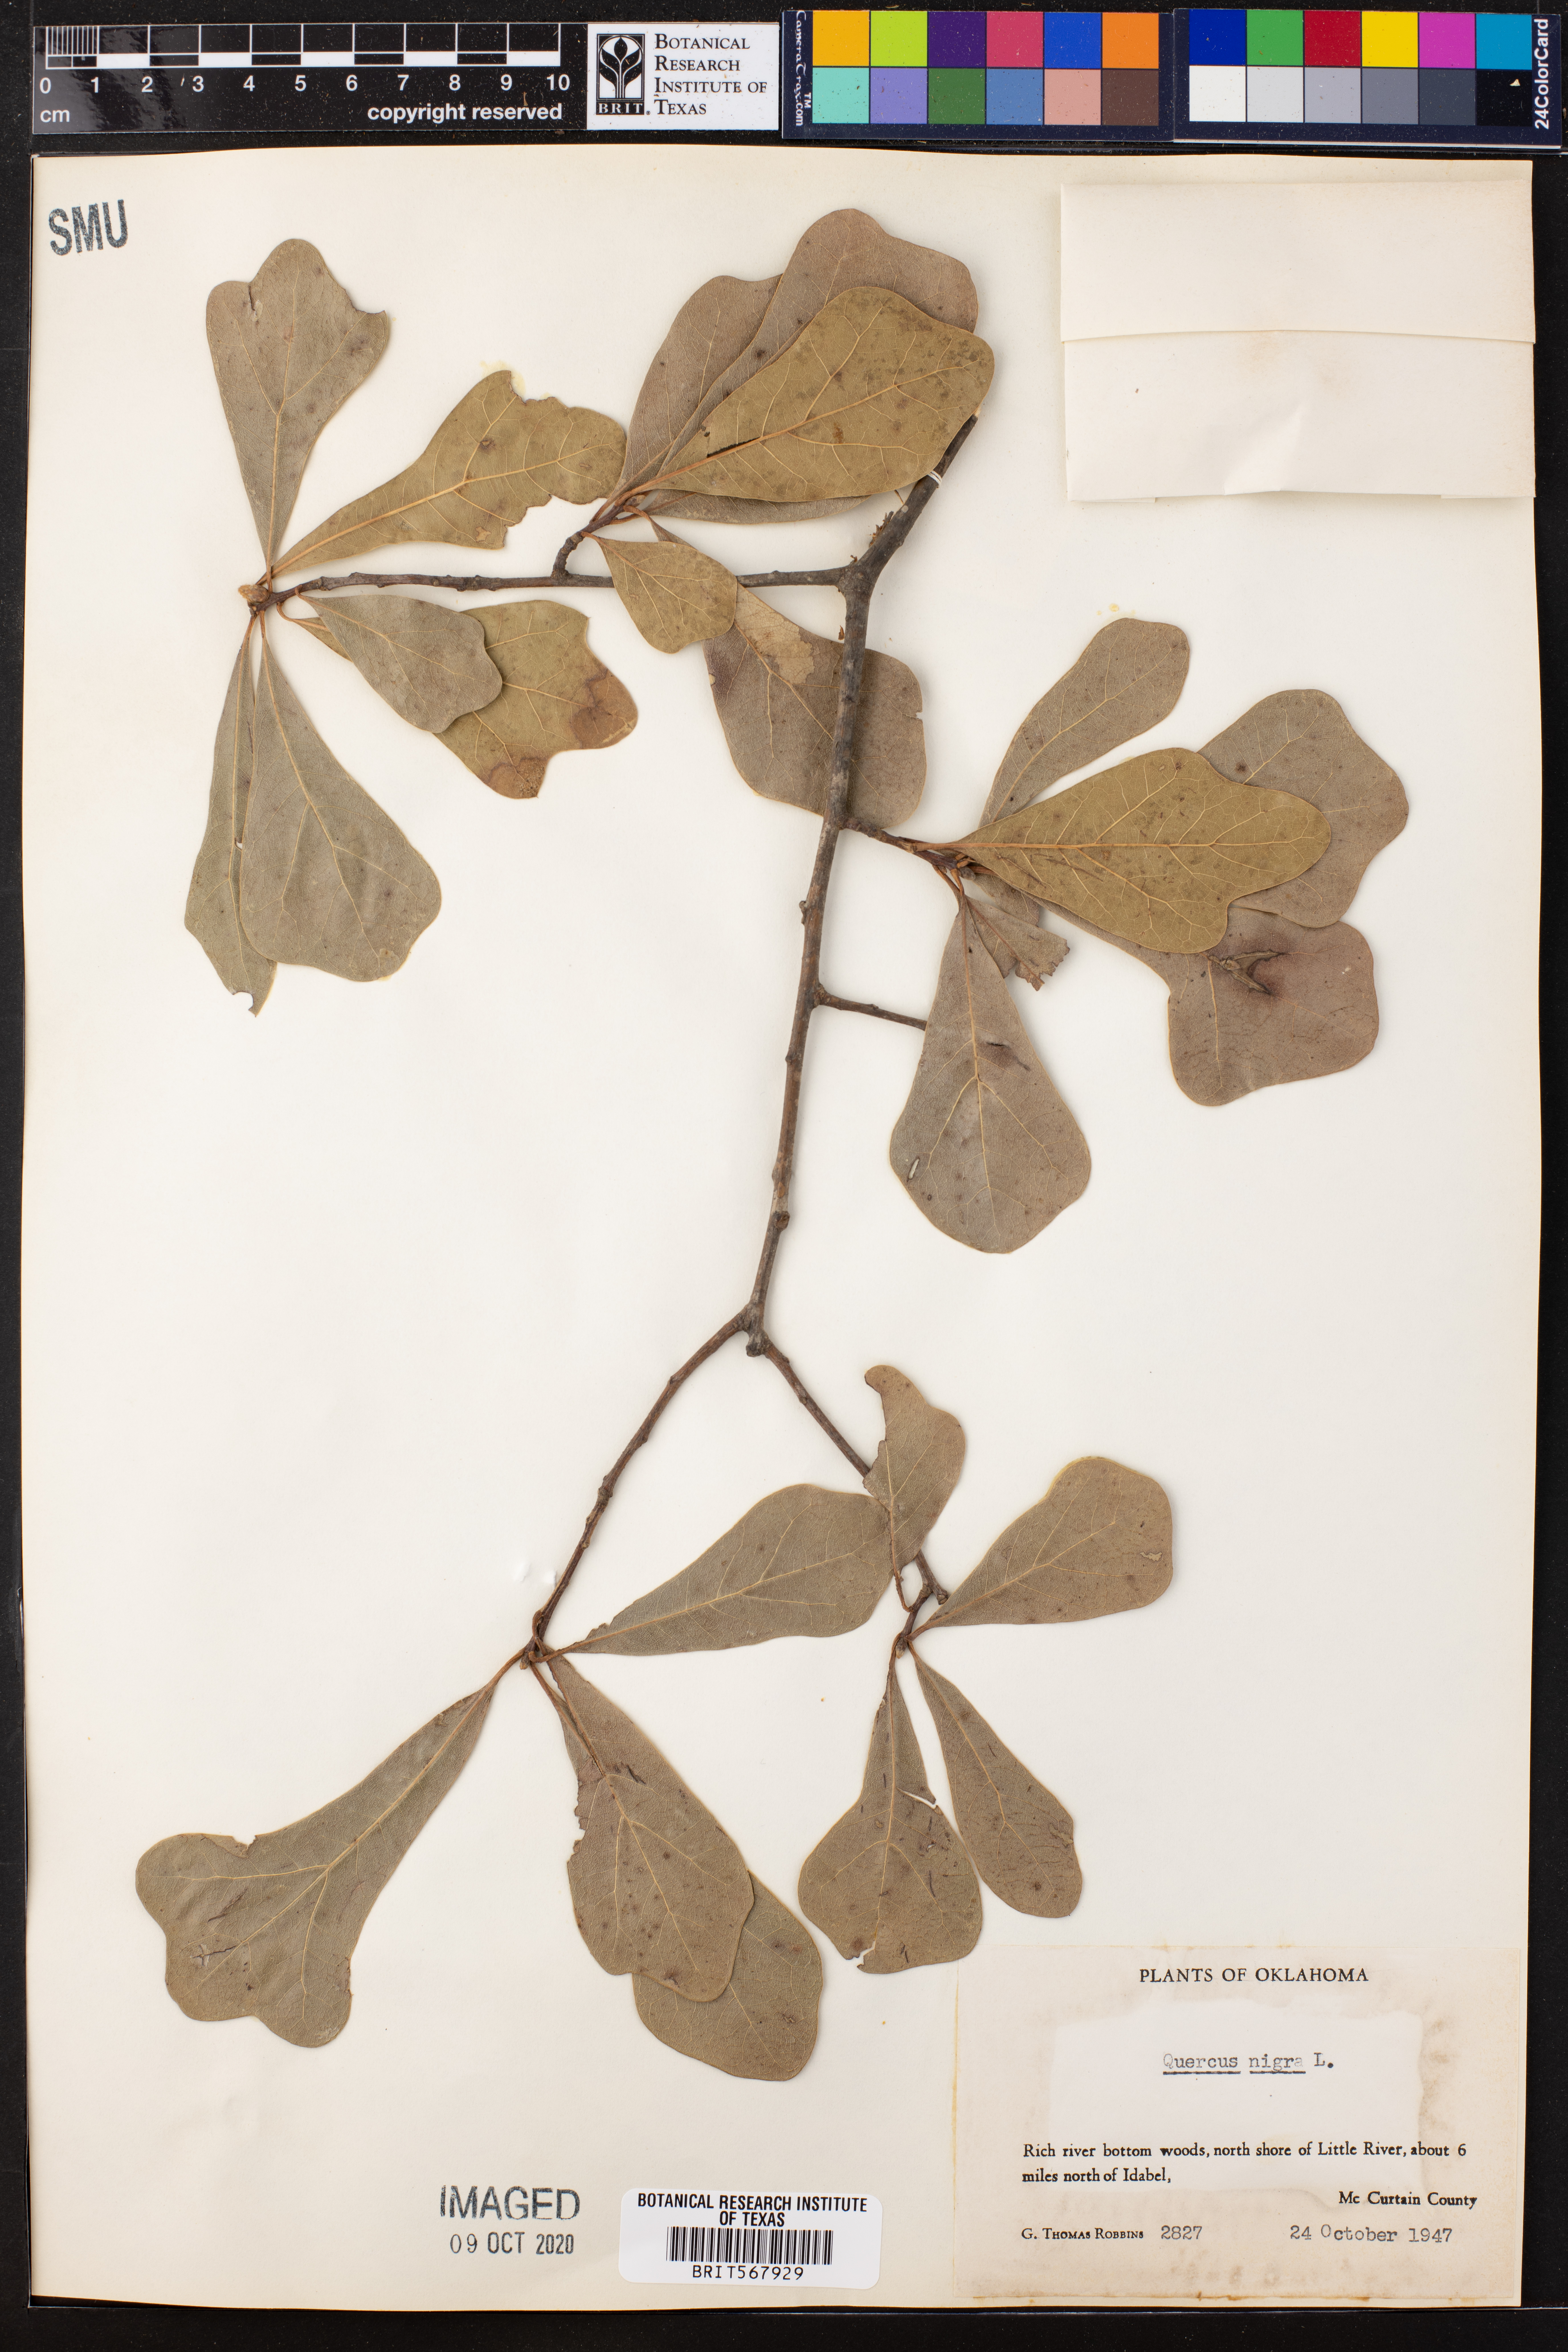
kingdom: Plantae
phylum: Tracheophyta
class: Magnoliopsida
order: Fagales
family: Fagaceae
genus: Quercus
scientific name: Quercus nigra
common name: Water oak
